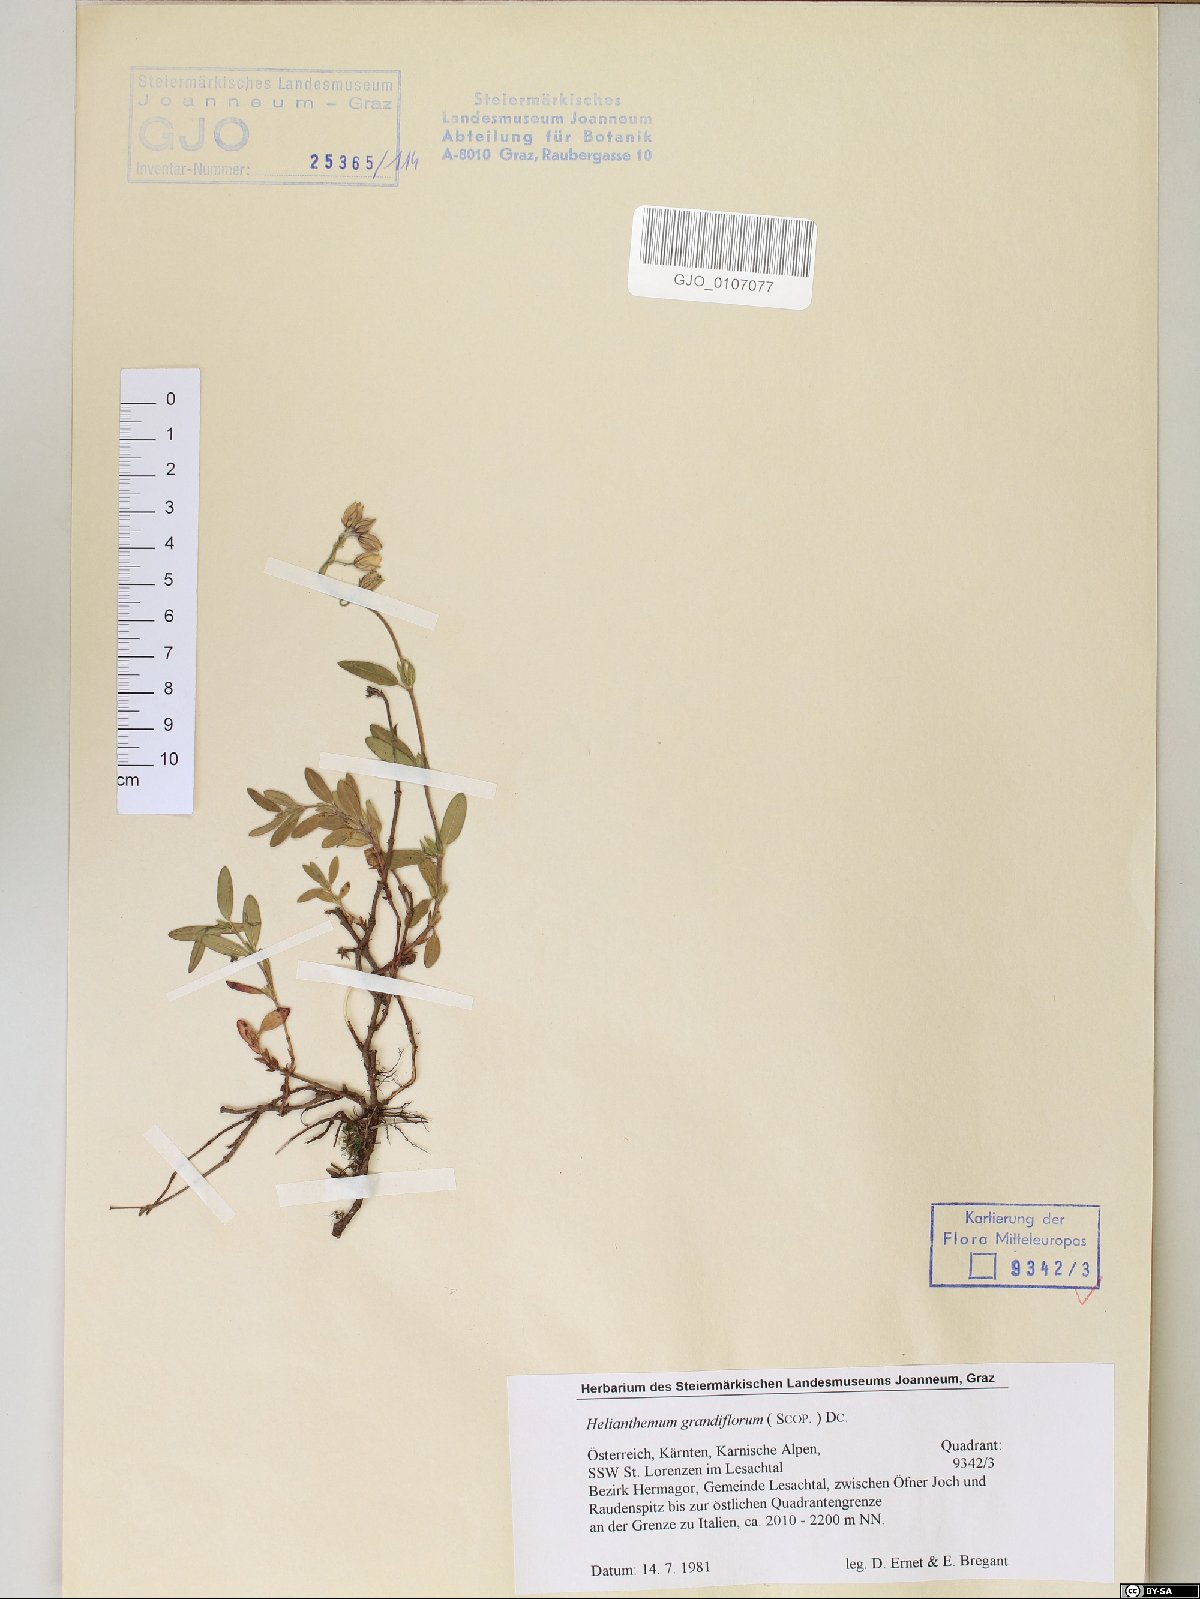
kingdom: Plantae
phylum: Tracheophyta
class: Magnoliopsida
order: Malvales
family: Cistaceae
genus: Helianthemum
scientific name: Helianthemum nummularium
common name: Common rock-rose
